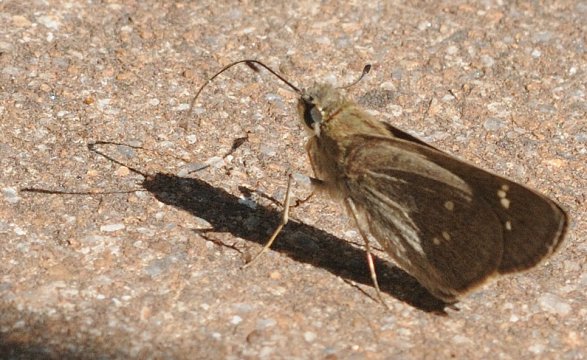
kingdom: Animalia
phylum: Arthropoda
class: Insecta
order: Lepidoptera
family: Hesperiidae
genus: Borbo
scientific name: Borbo borbonica
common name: Zeller's Skipper
